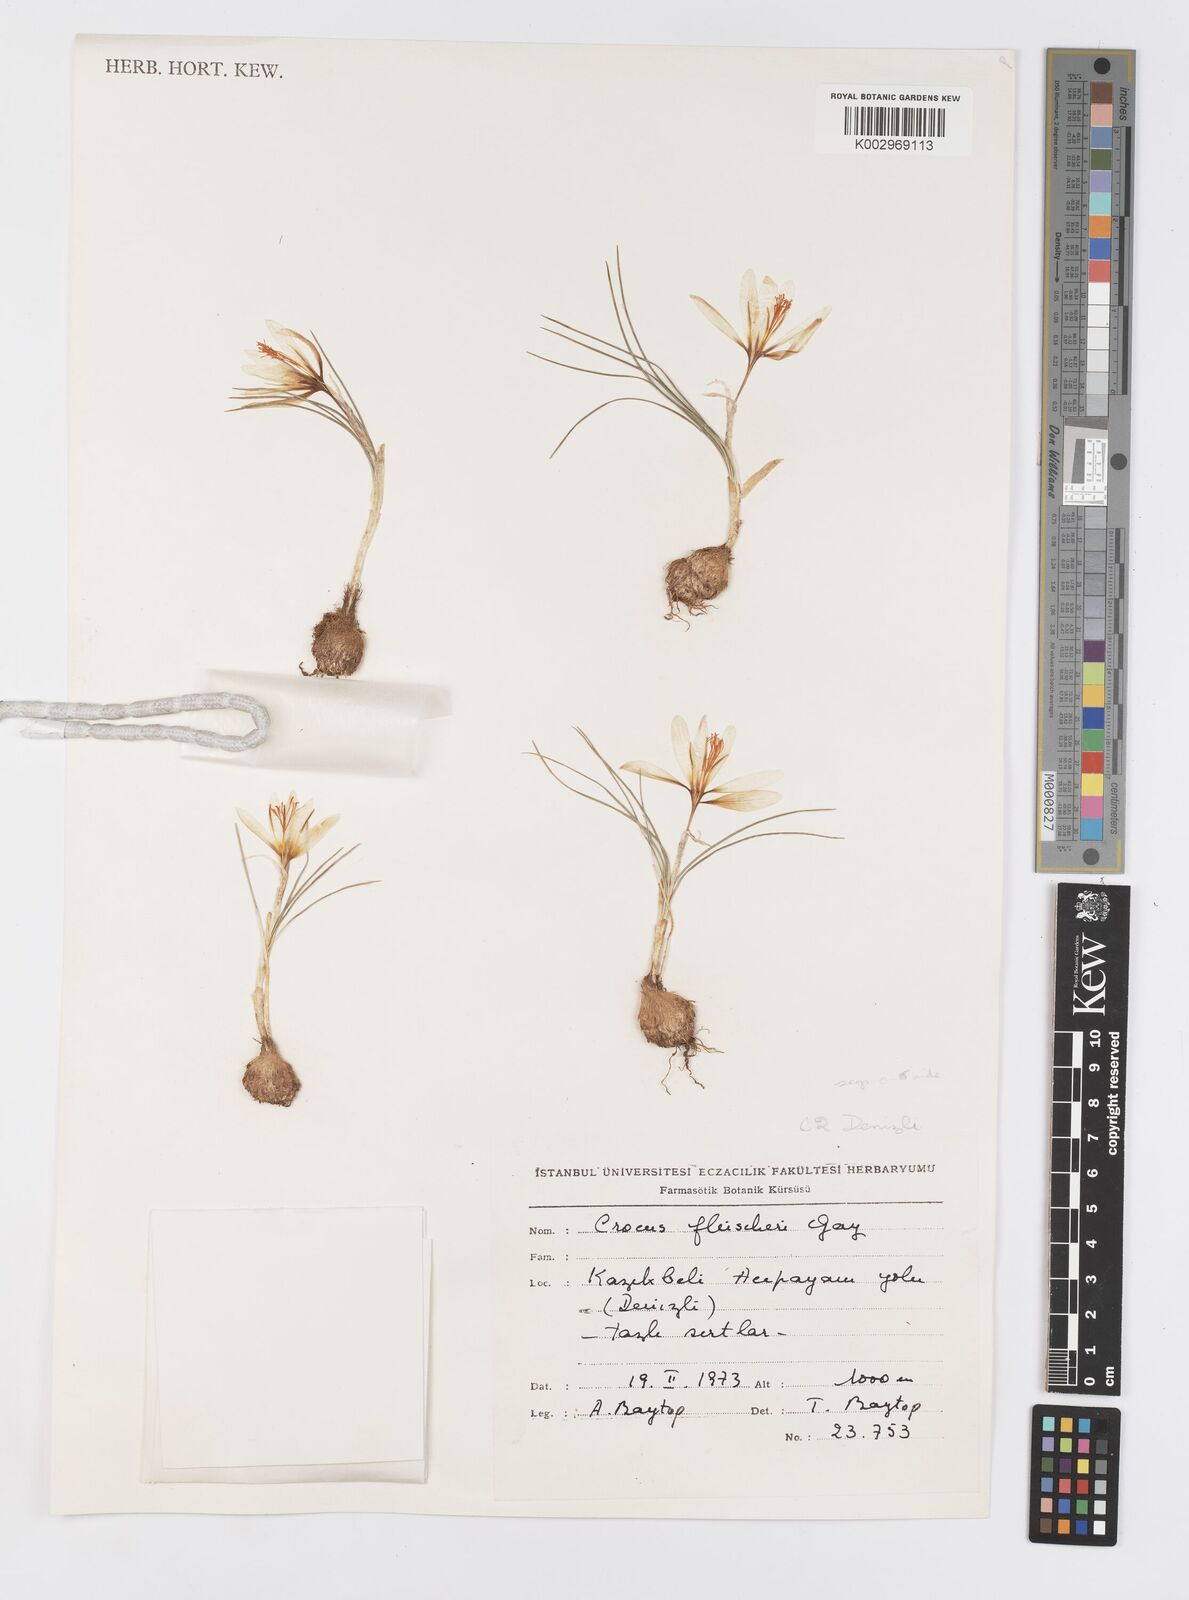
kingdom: Plantae
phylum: Tracheophyta
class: Liliopsida
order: Asparagales
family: Iridaceae
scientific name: Iridaceae
